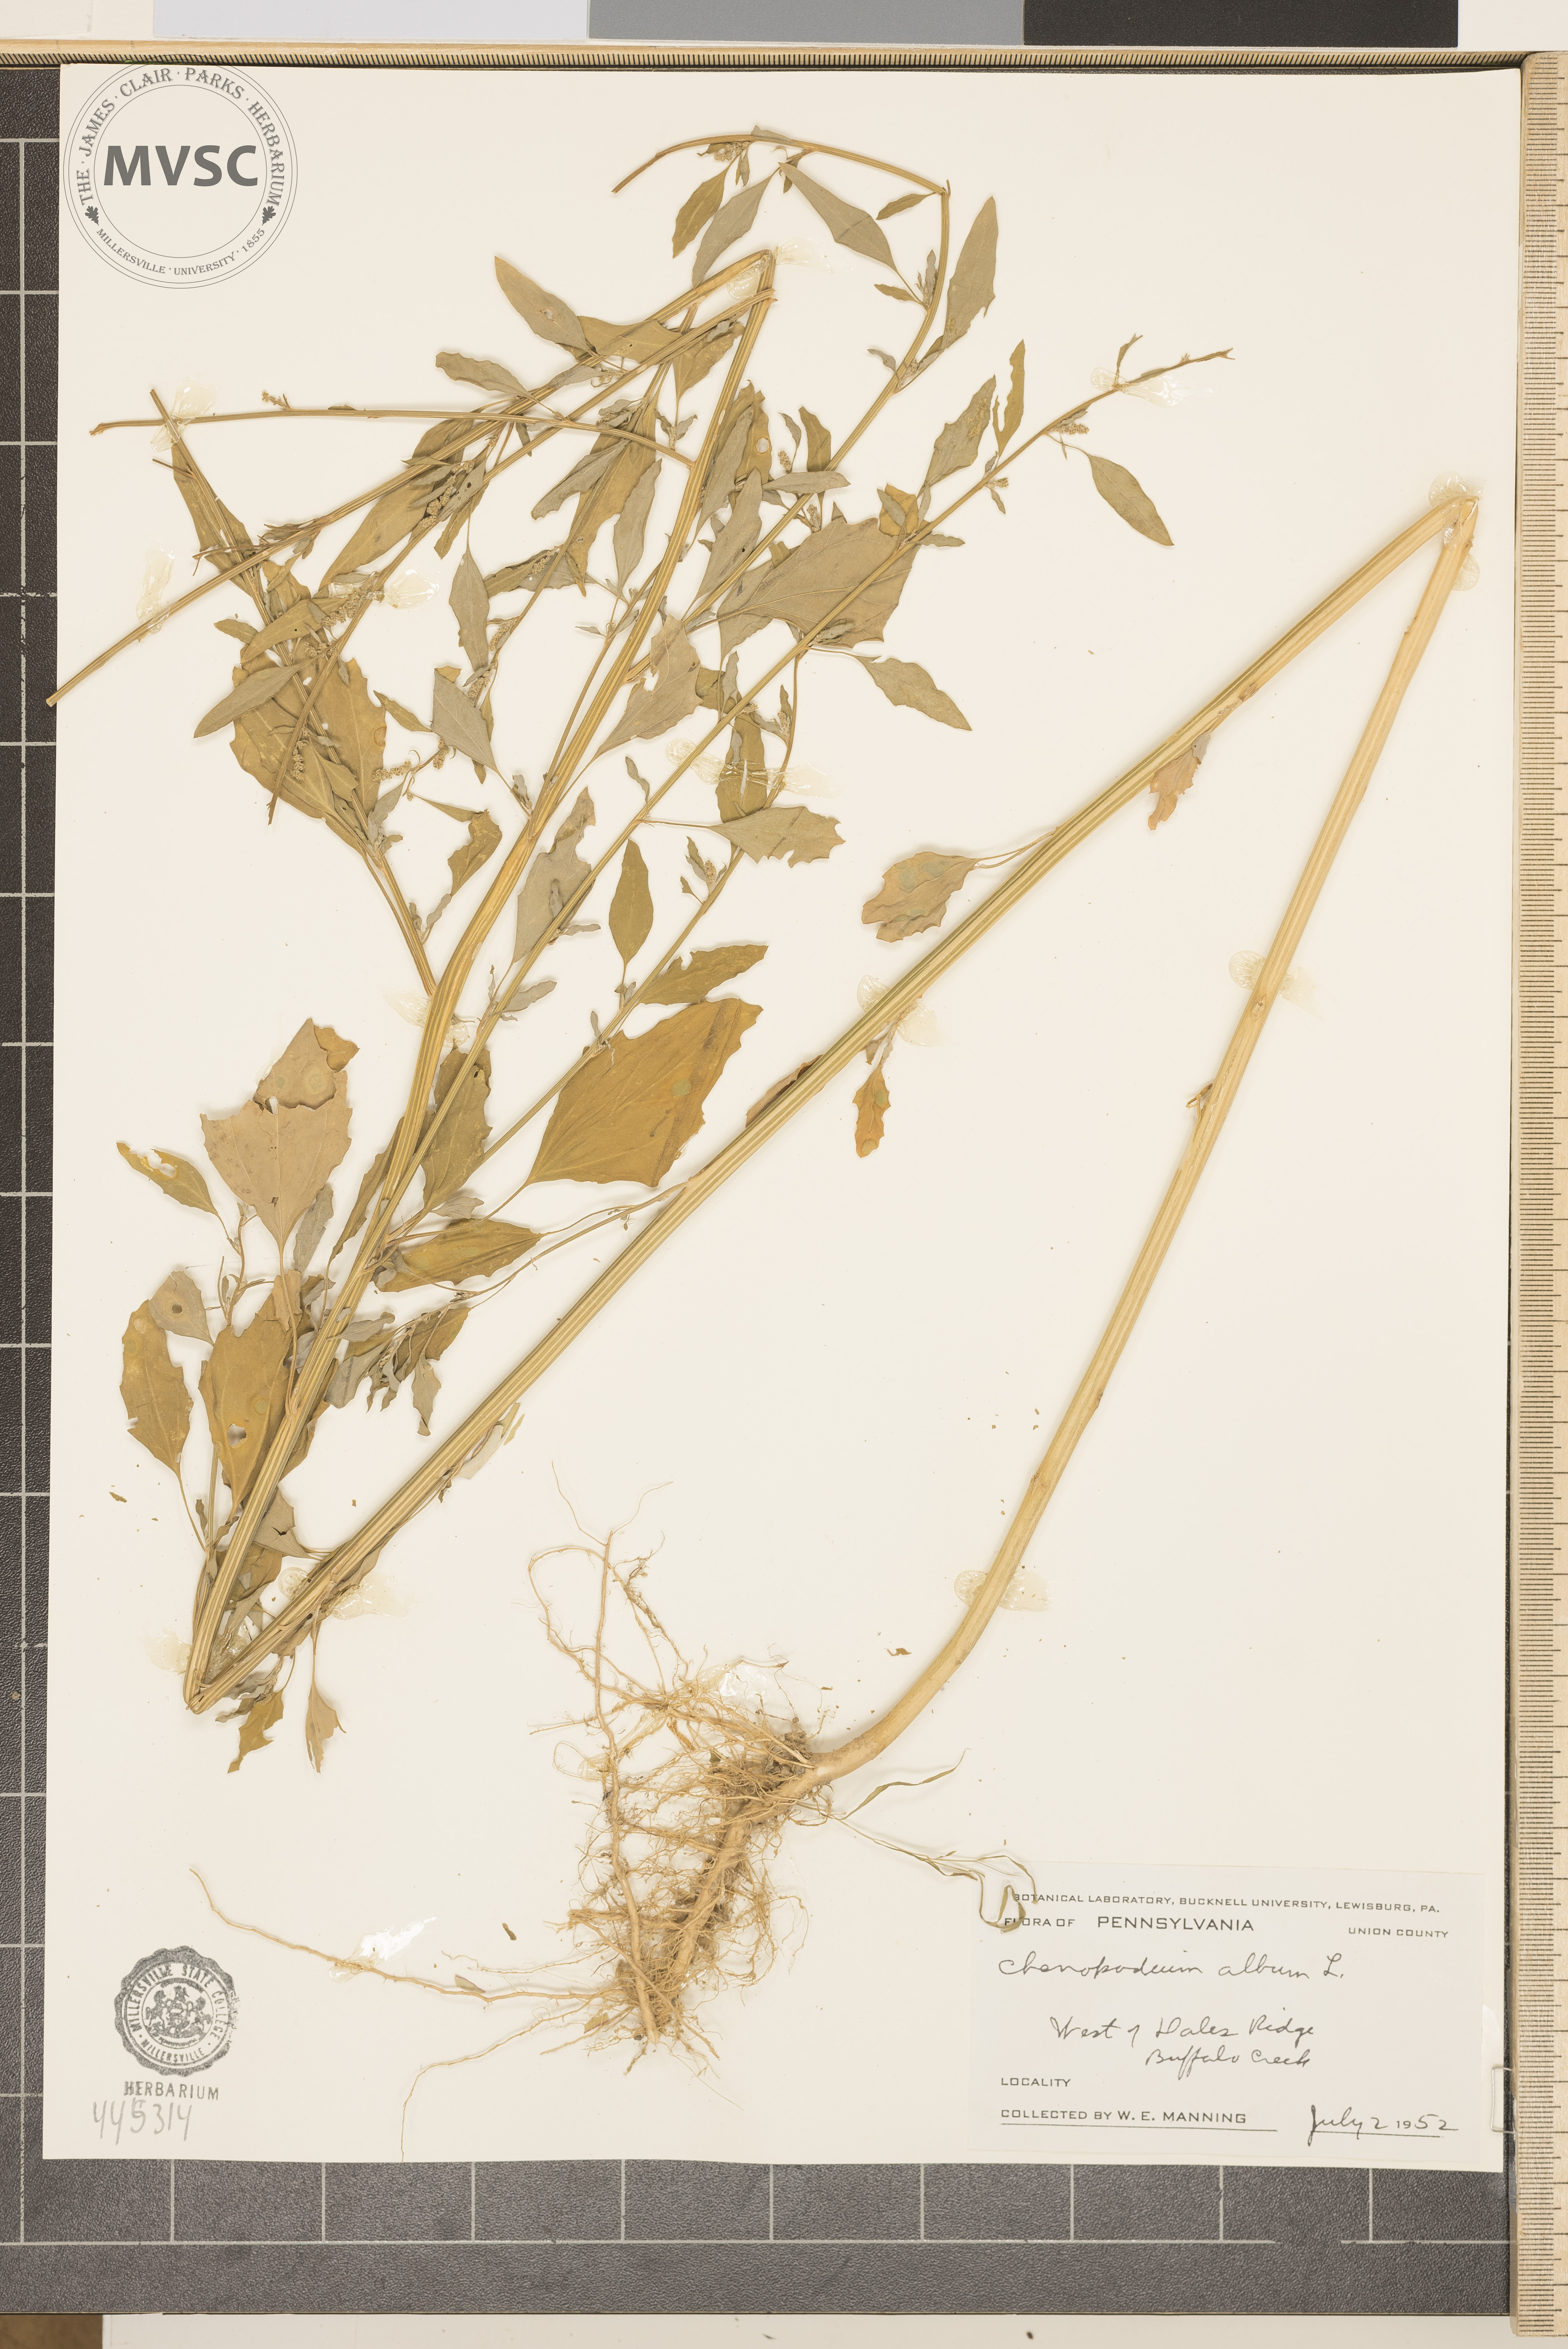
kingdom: Plantae
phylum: Tracheophyta
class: Magnoliopsida
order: Caryophyllales
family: Amaranthaceae
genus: Chenopodium
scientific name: Chenopodium album
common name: Fat-hen
